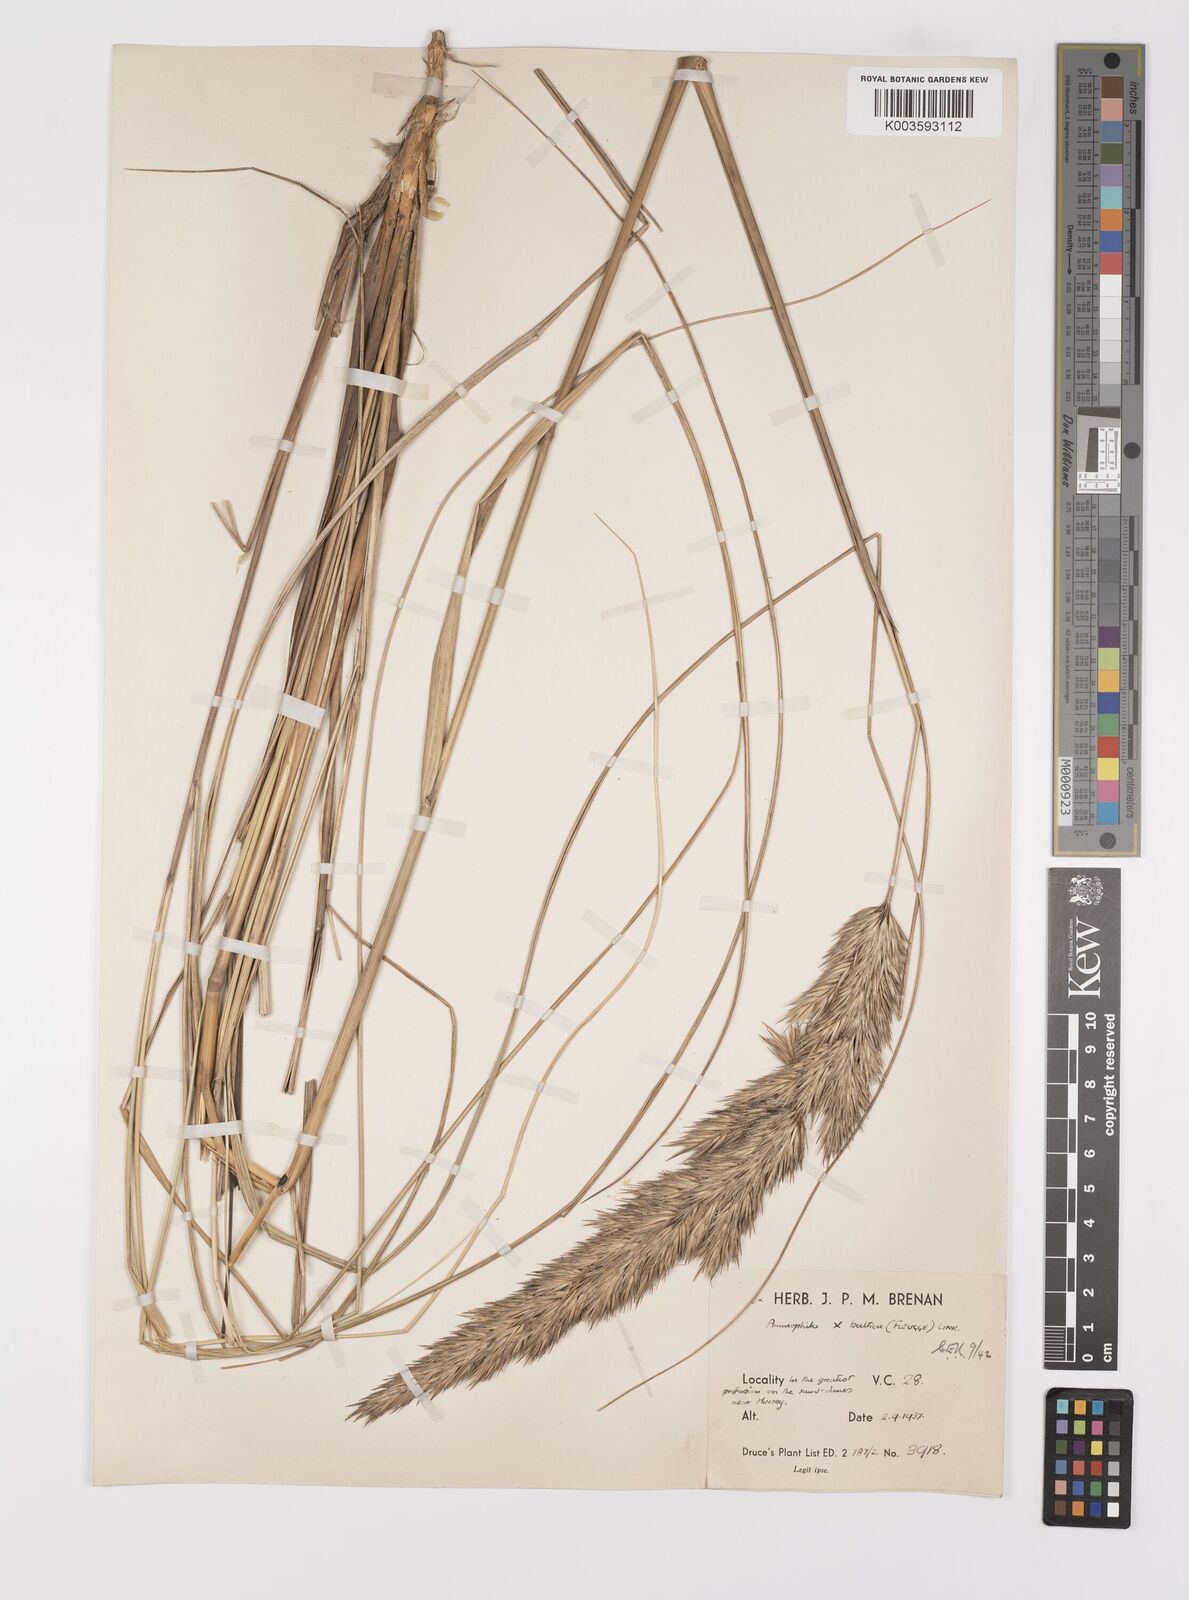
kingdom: Plantae
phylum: Tracheophyta
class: Liliopsida
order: Poales
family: Poaceae
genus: Calamagrostis
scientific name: Calamagrostis baltica
